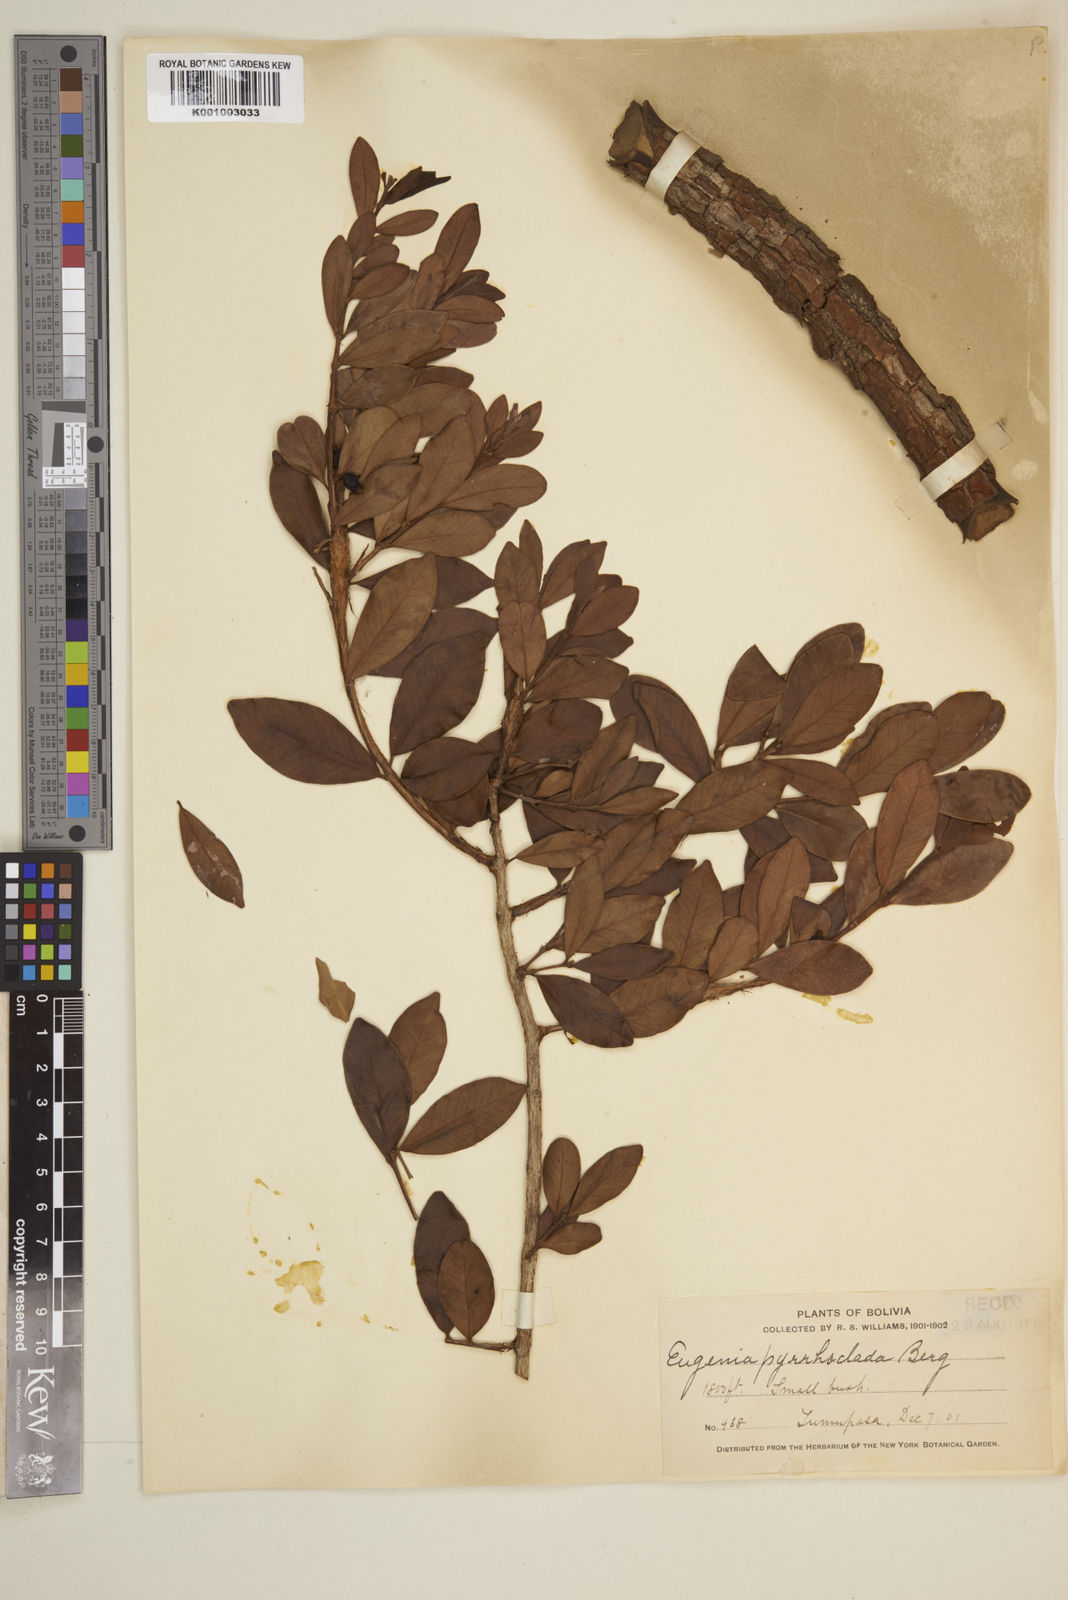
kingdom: Plantae
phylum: Tracheophyta
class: Magnoliopsida
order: Myrtales
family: Myrtaceae
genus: Eugenia
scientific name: Eugenia punicifolia
